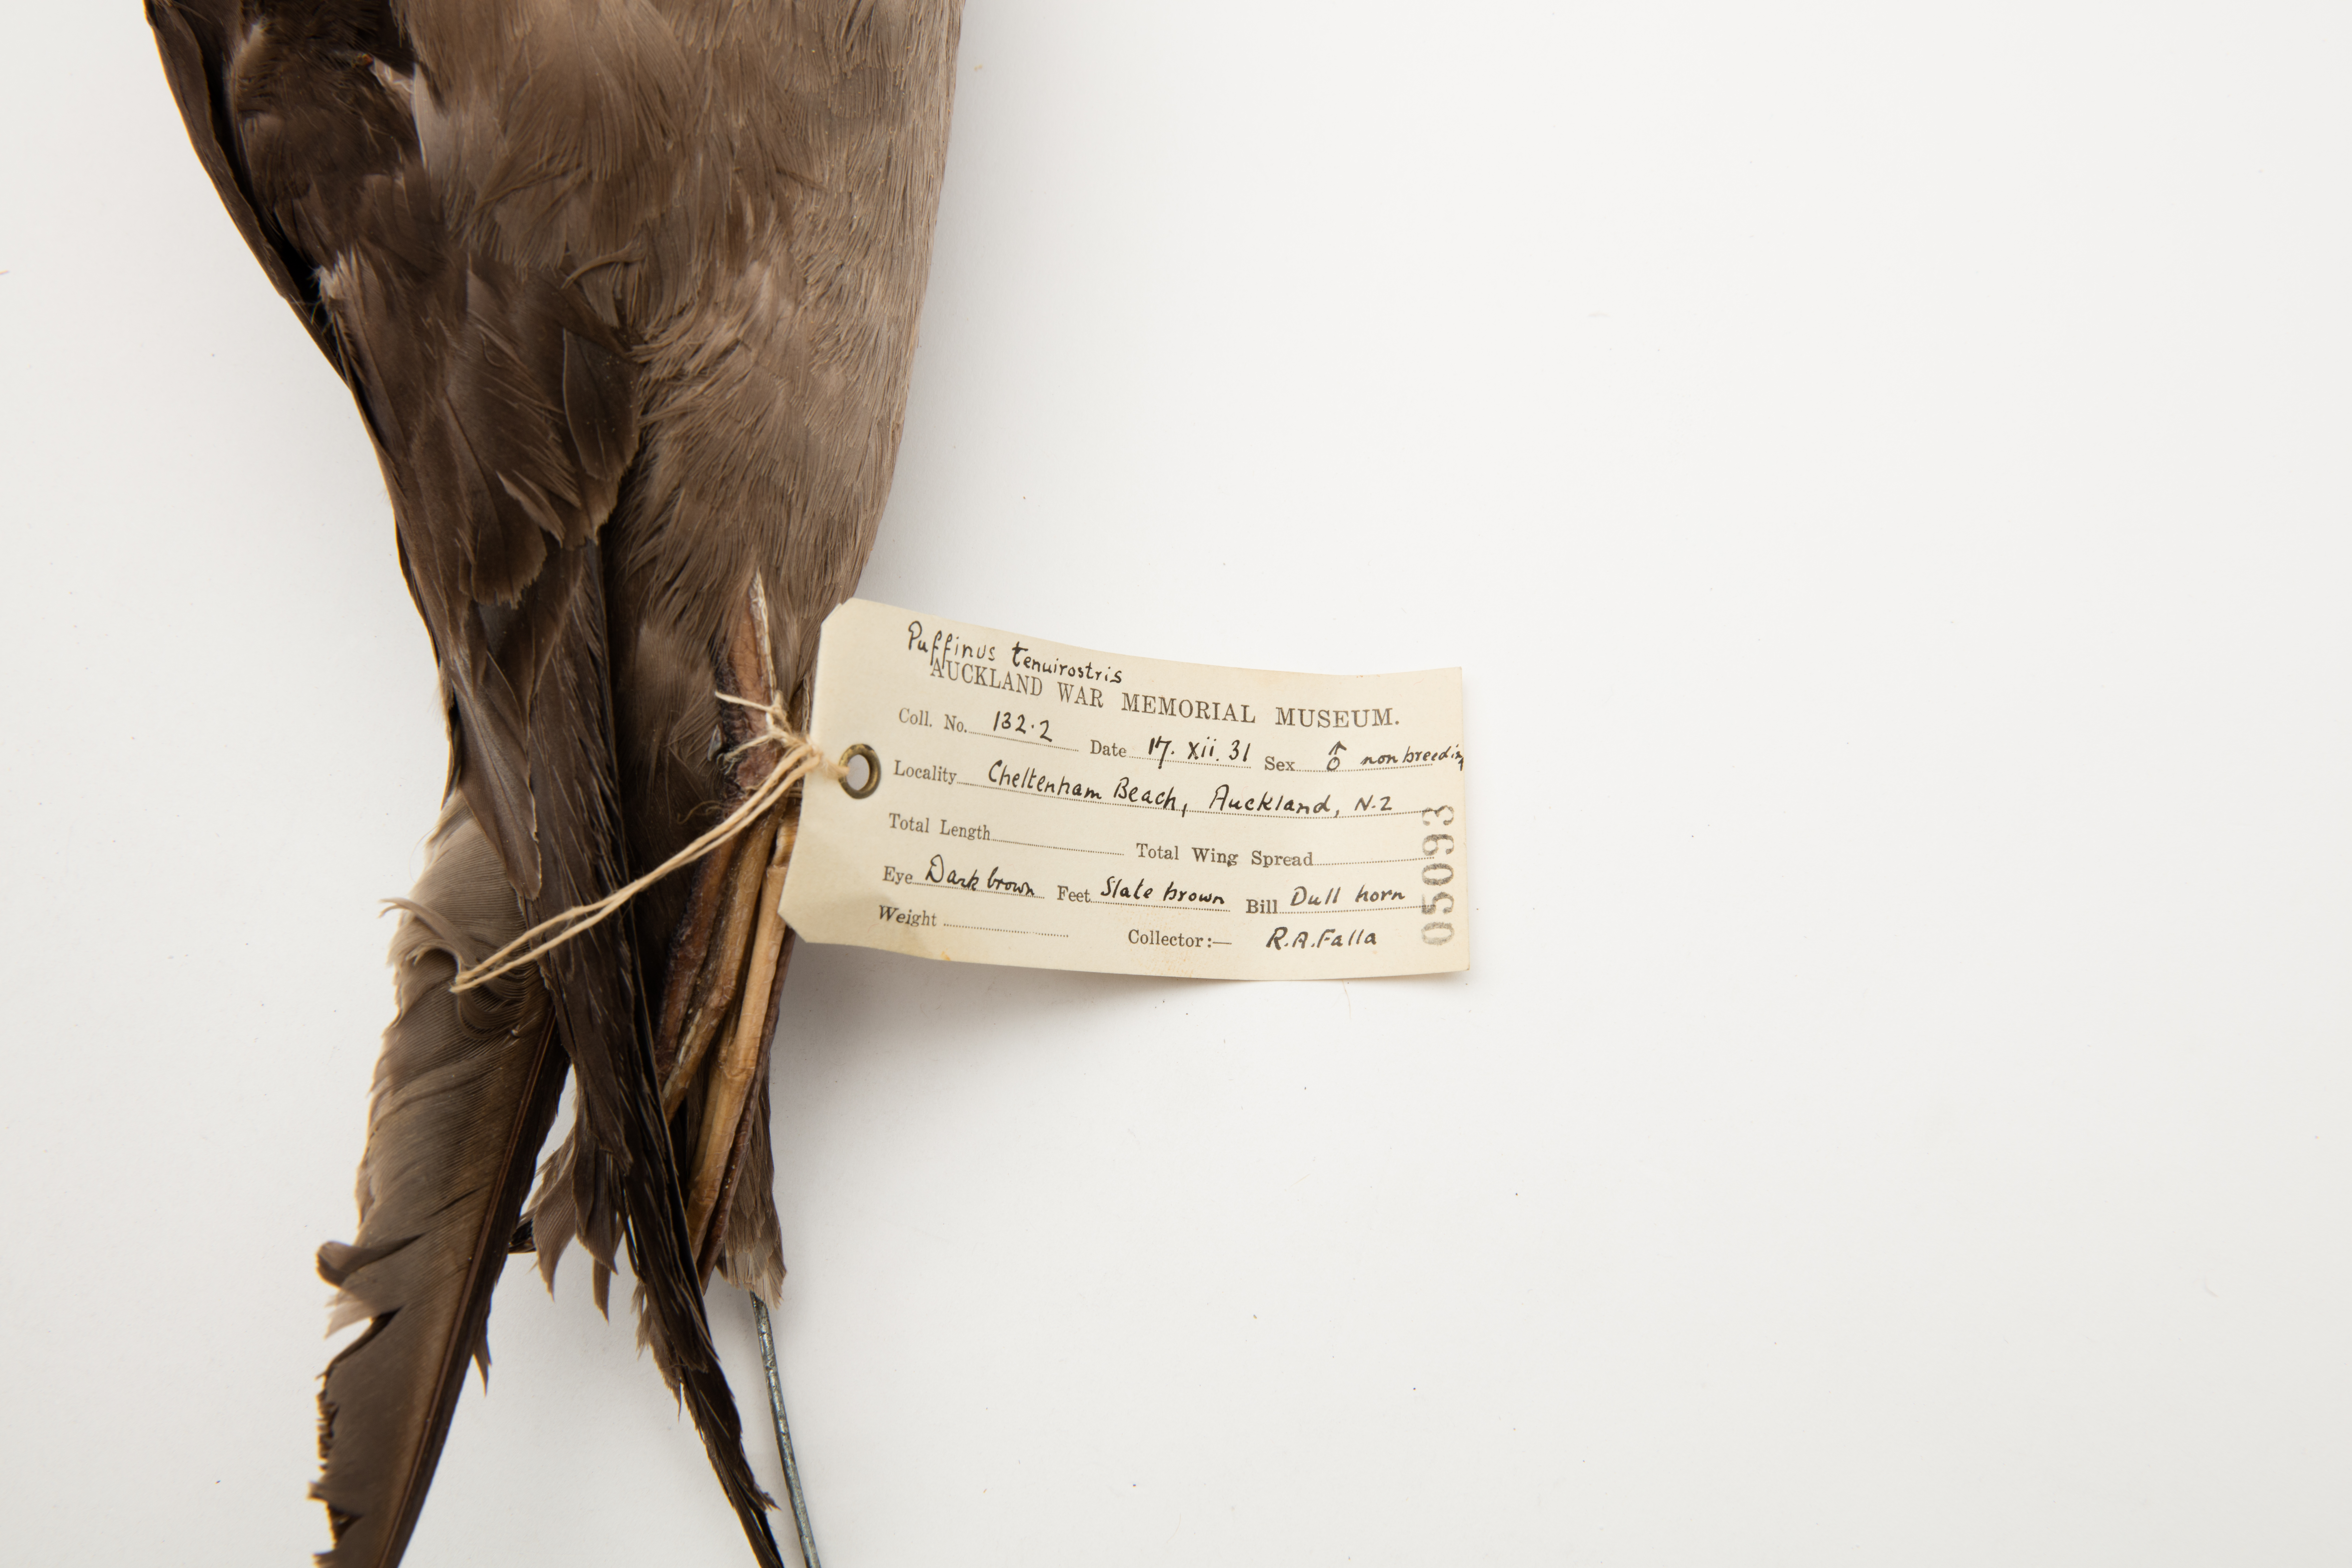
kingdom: Animalia
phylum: Chordata
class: Aves
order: Procellariiformes
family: Procellariidae
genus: Puffinus
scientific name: Puffinus tenuirostris
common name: Short-tailed shearwater
